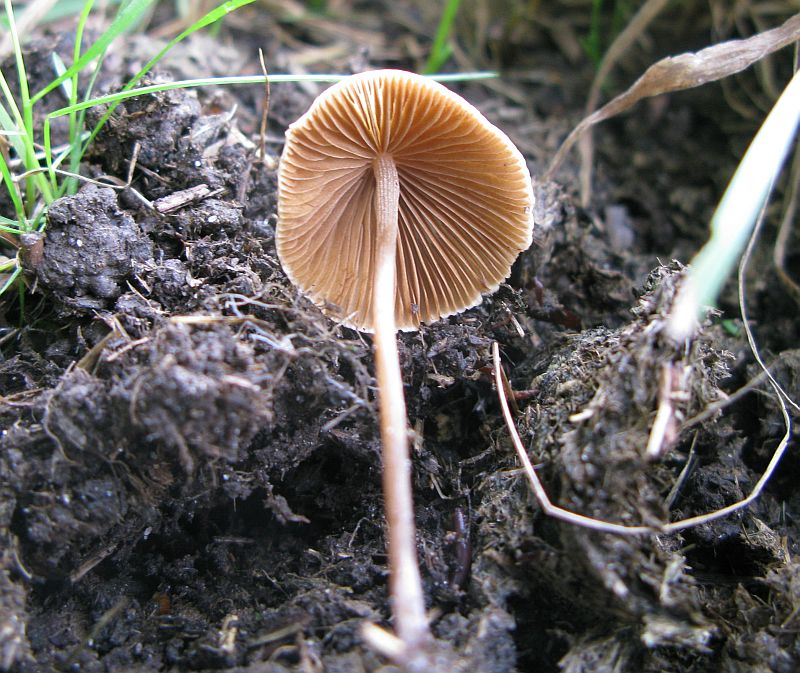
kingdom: Fungi
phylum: Basidiomycota
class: Agaricomycetes
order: Agaricales
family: Bolbitiaceae
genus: Conocybe
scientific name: Conocybe apala
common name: mælkehvid keglehat
